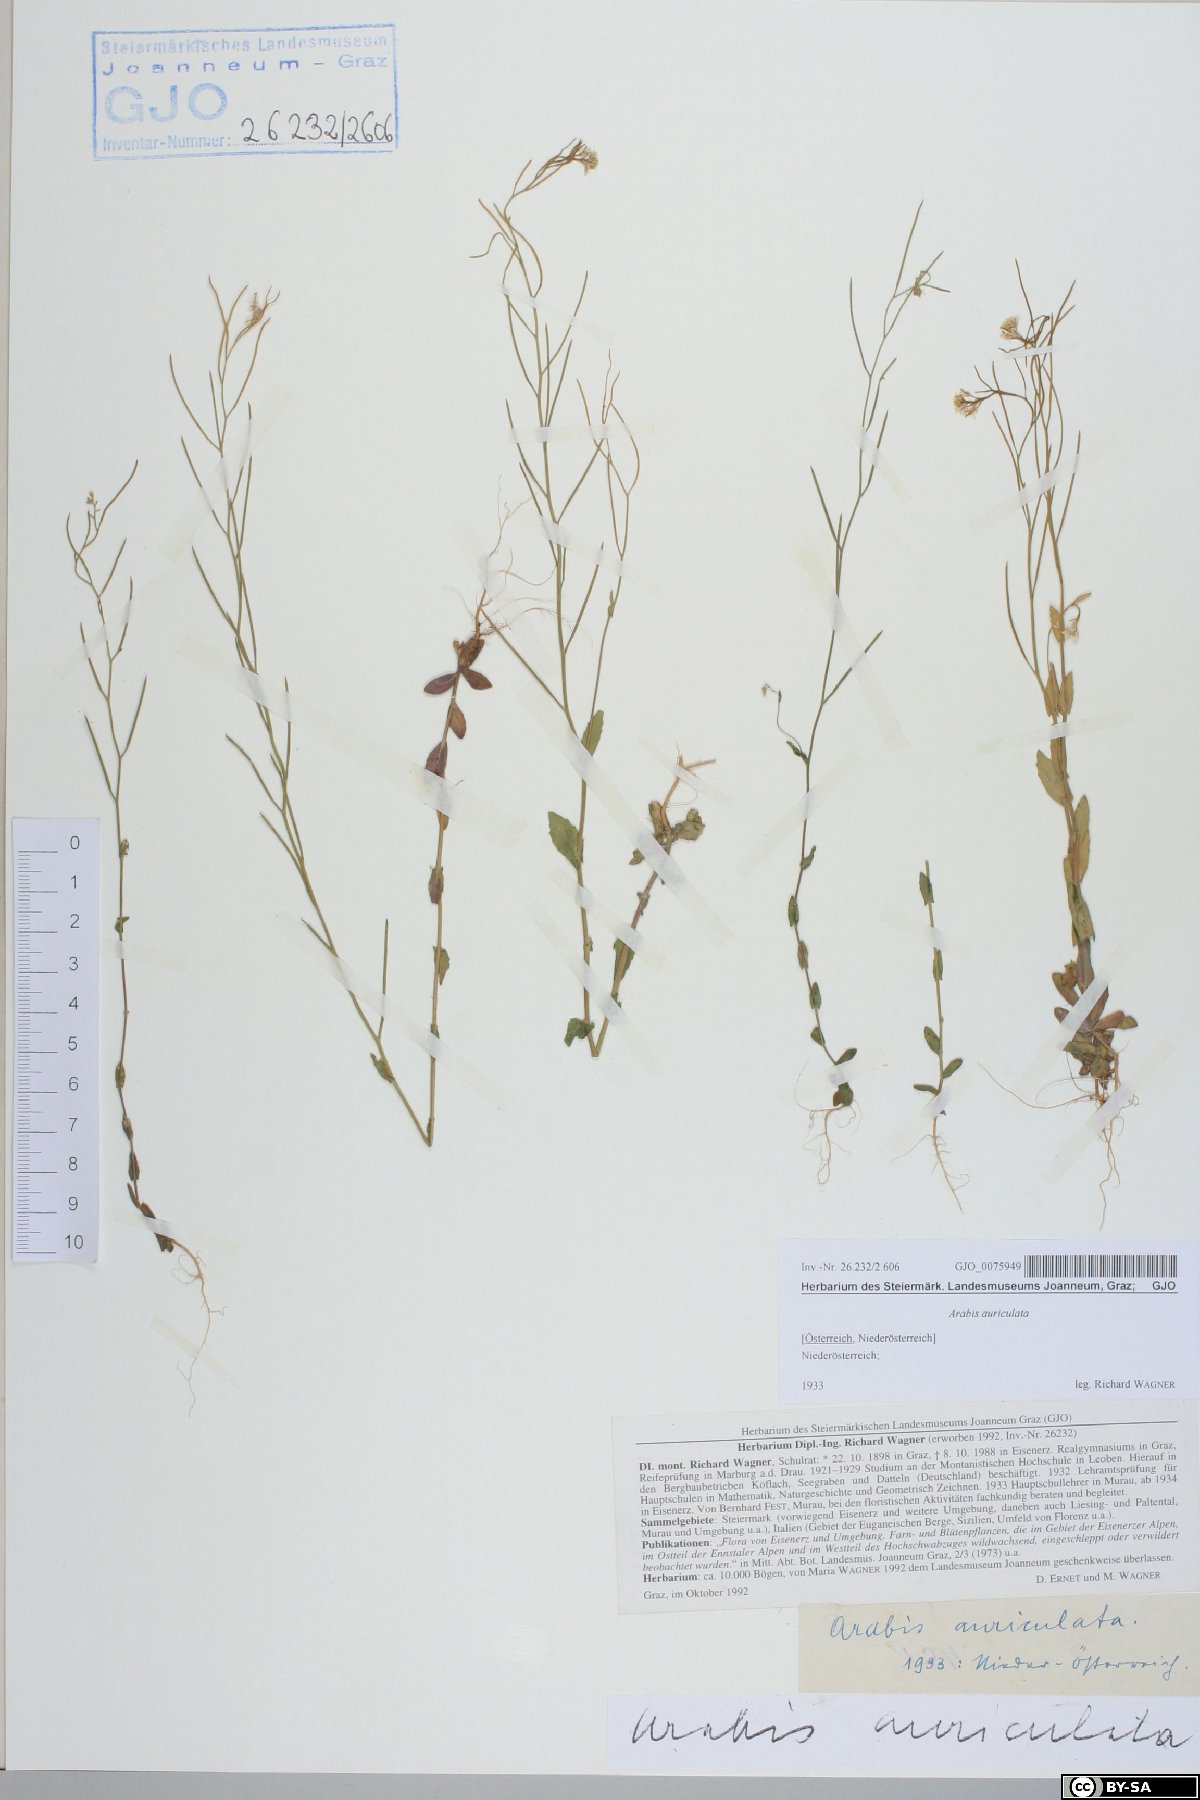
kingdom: Plantae
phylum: Tracheophyta
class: Magnoliopsida
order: Brassicales
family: Brassicaceae
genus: Arabis
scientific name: Arabis auriculata
